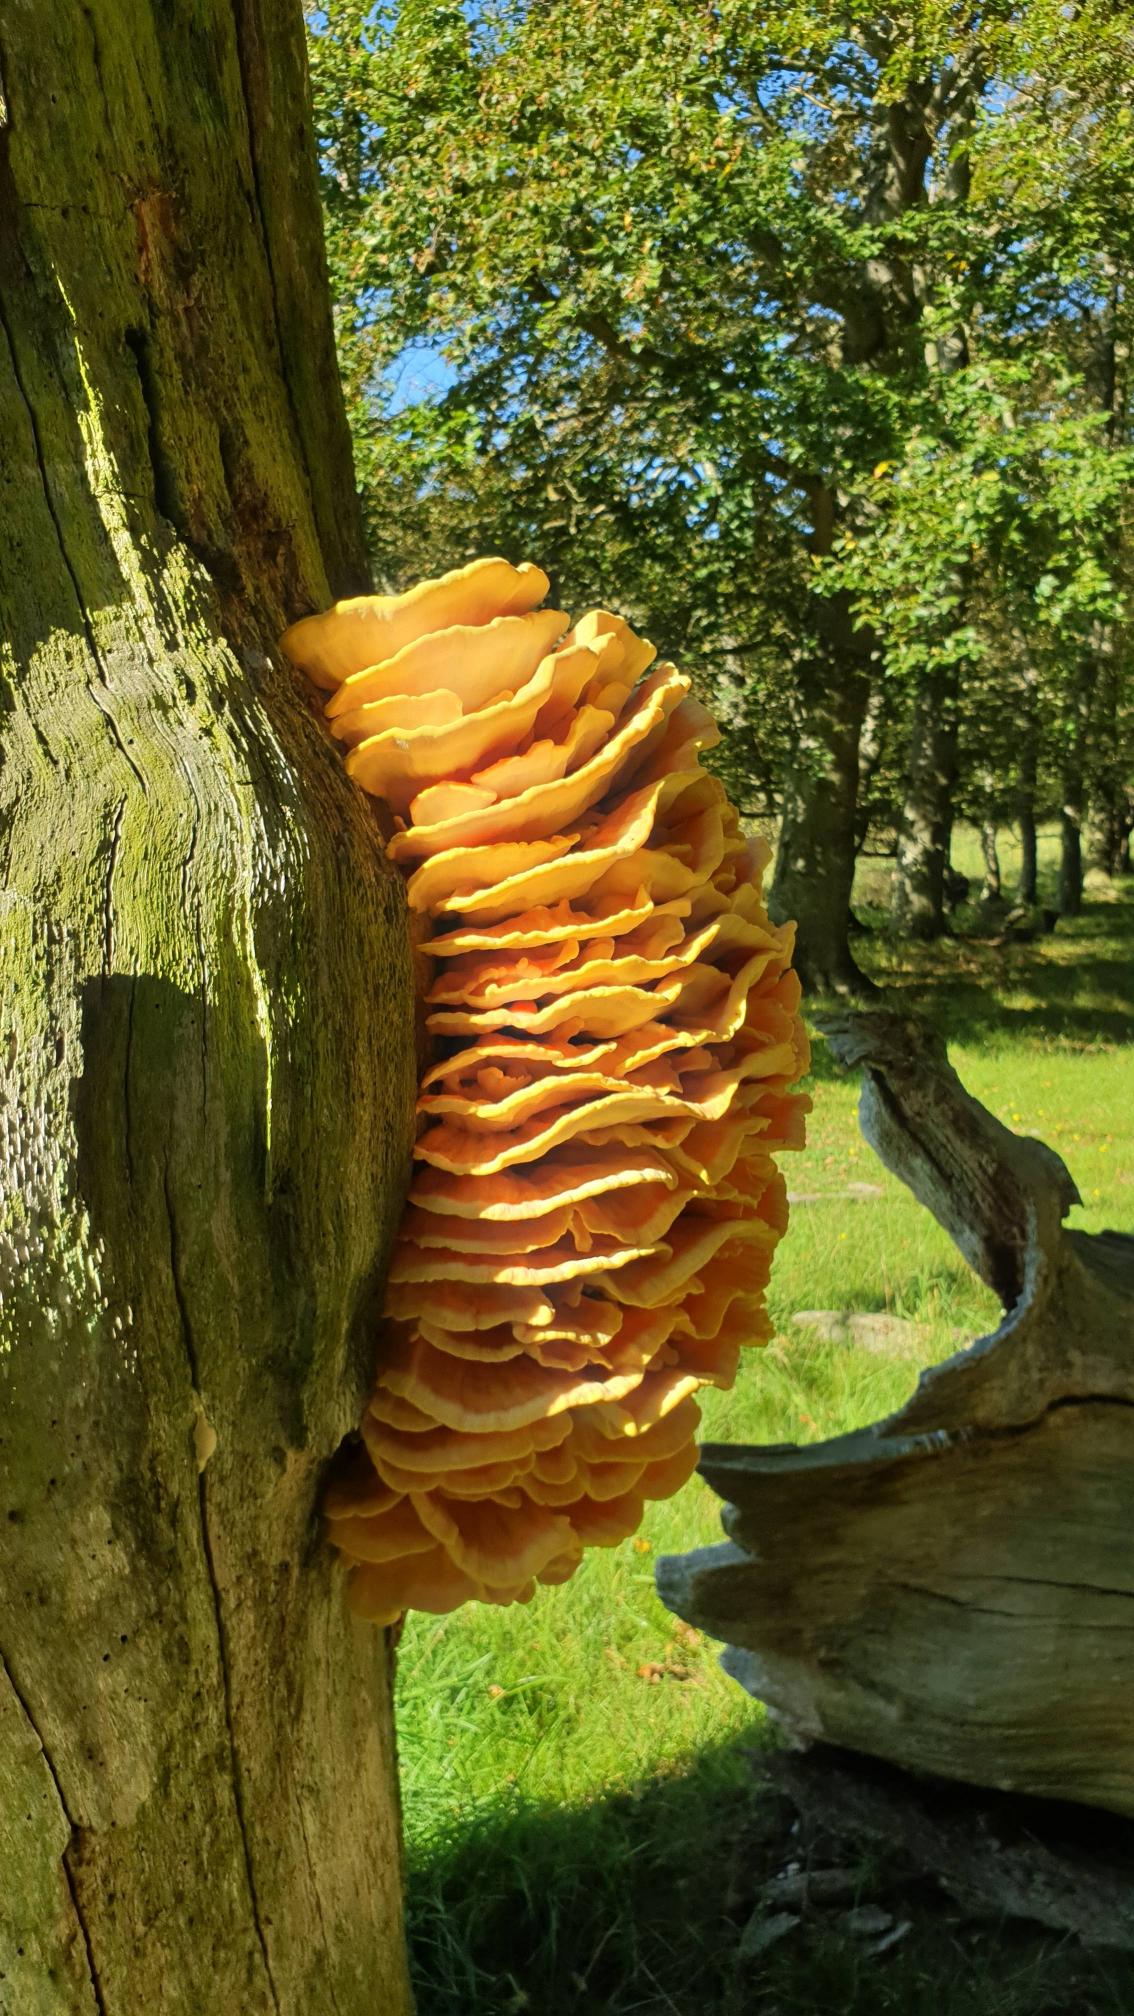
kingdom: Fungi
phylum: Basidiomycota
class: Agaricomycetes
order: Polyporales
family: Laetiporaceae
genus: Laetiporus
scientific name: Laetiporus sulphureus
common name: Svovlporesvamp
